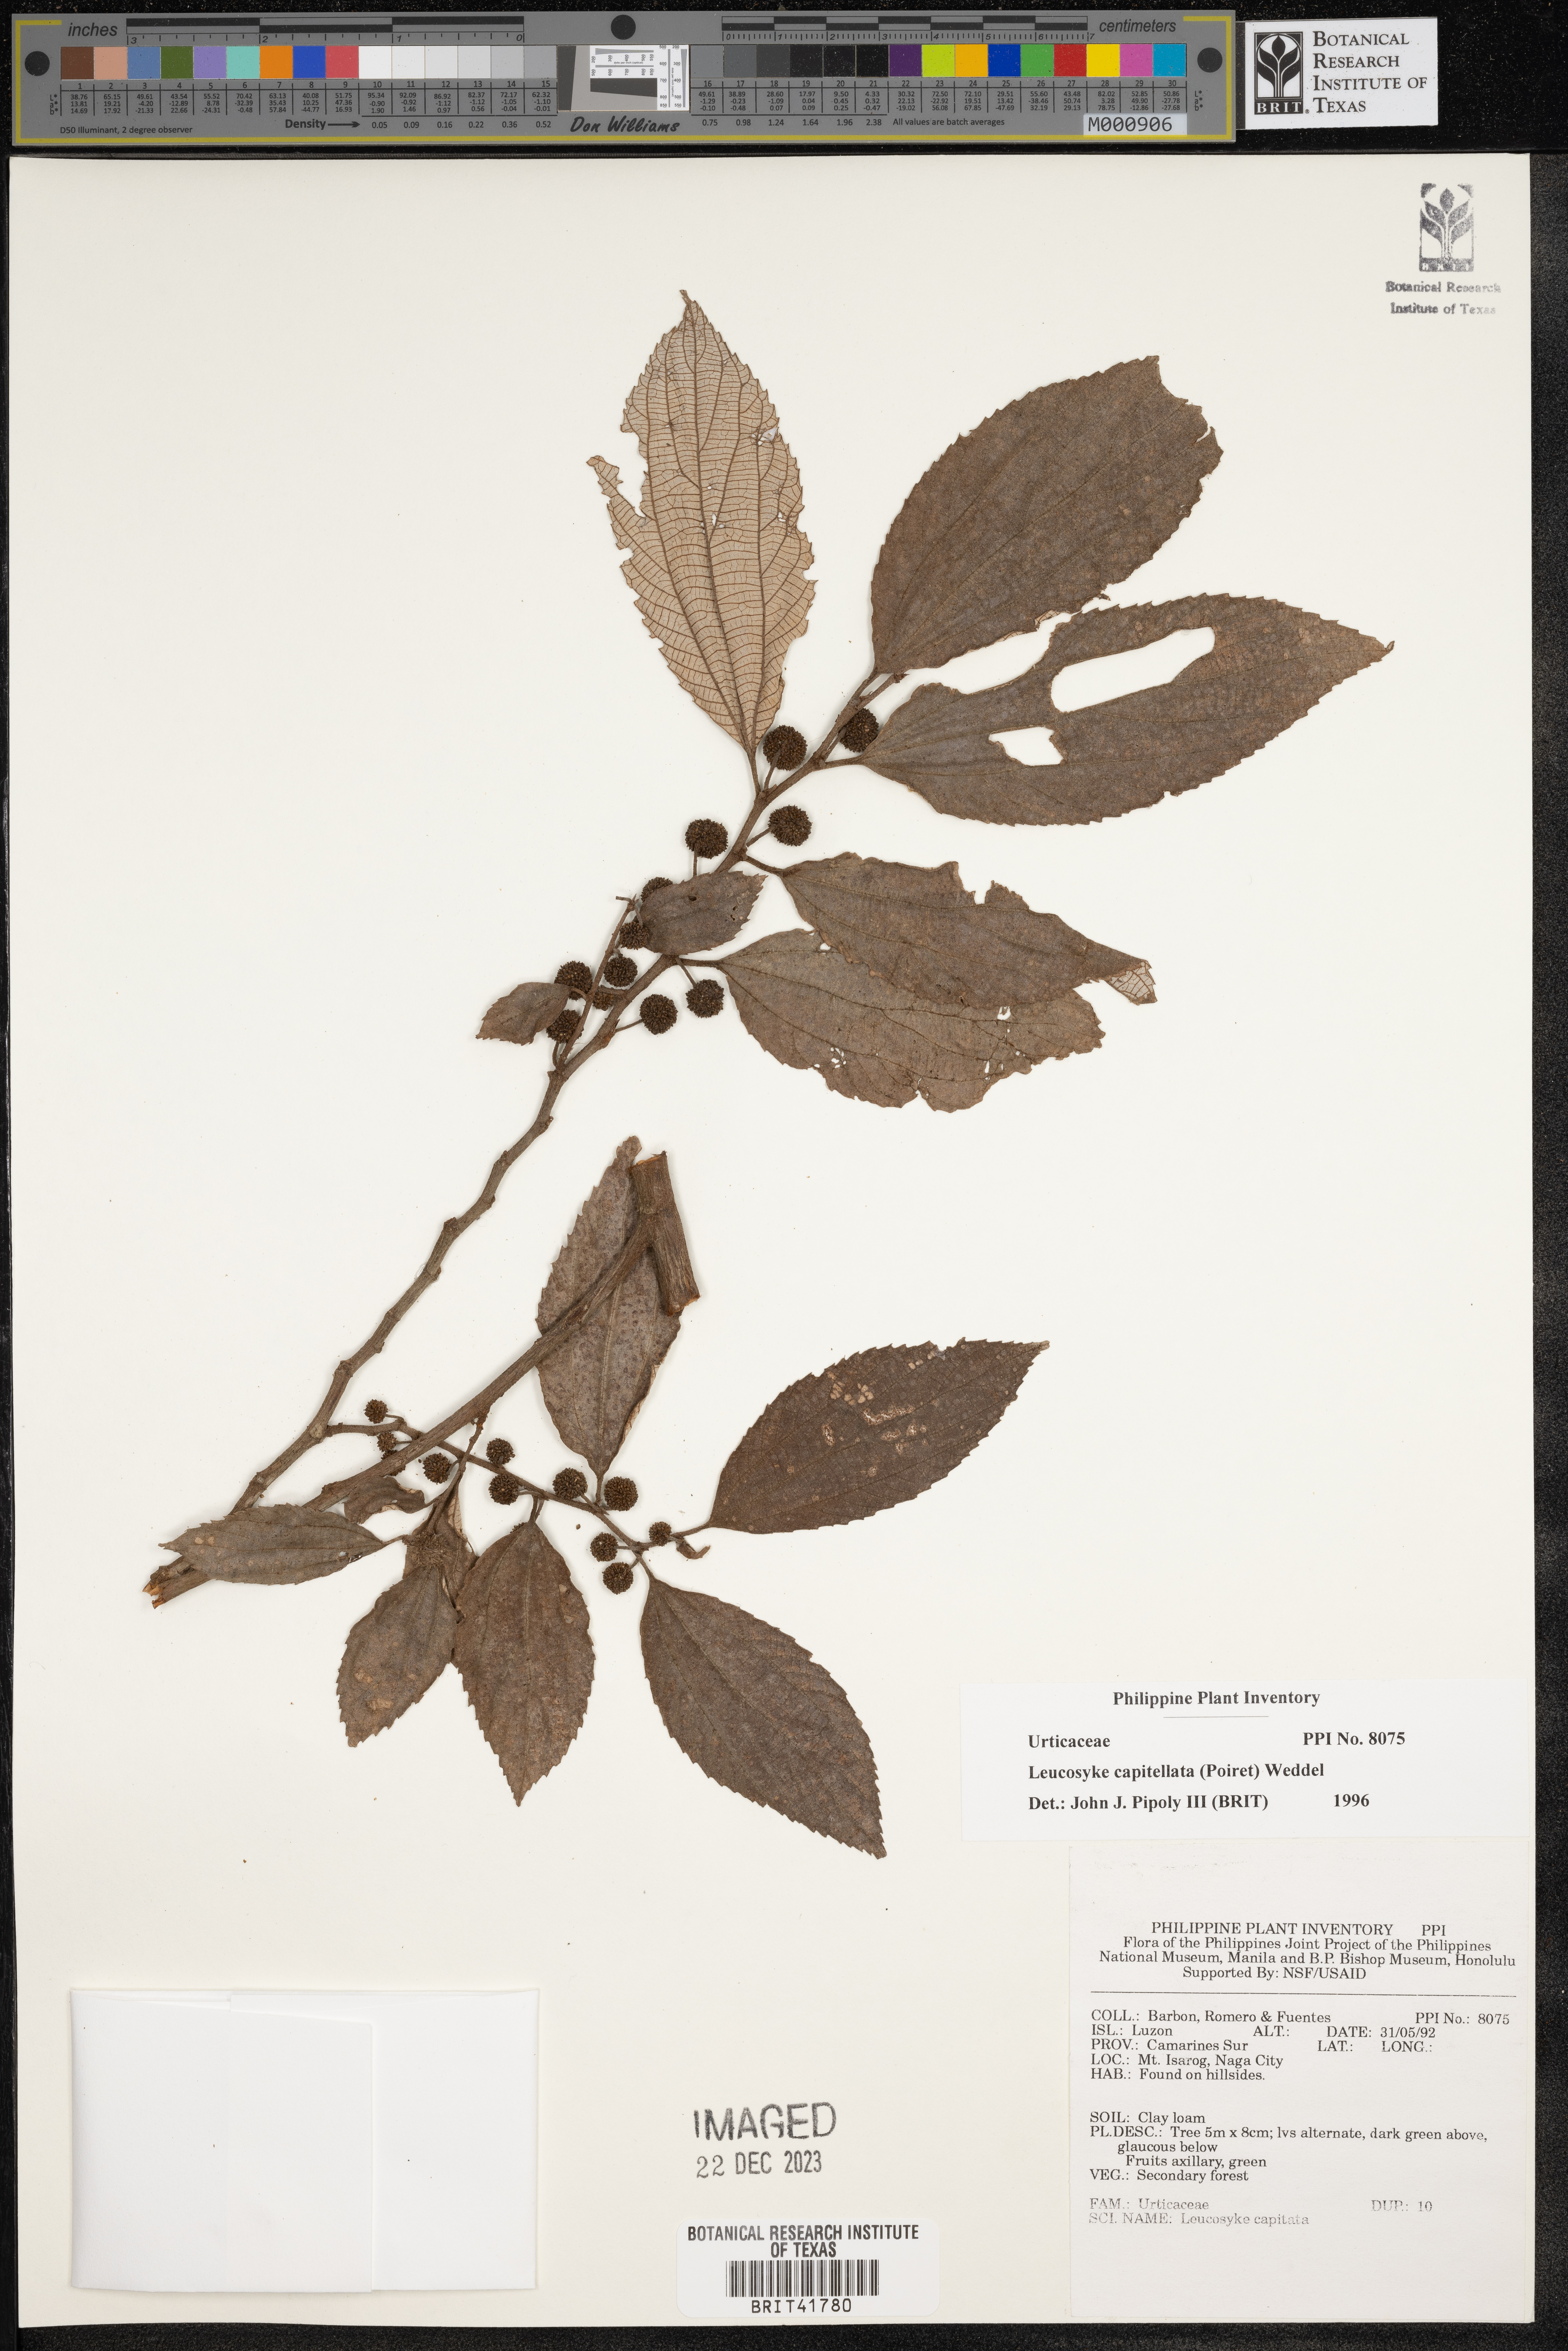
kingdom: Plantae
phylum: Tracheophyta
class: Magnoliopsida
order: Rosales
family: Urticaceae
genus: Leucosyke
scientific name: Leucosyke capitellata
